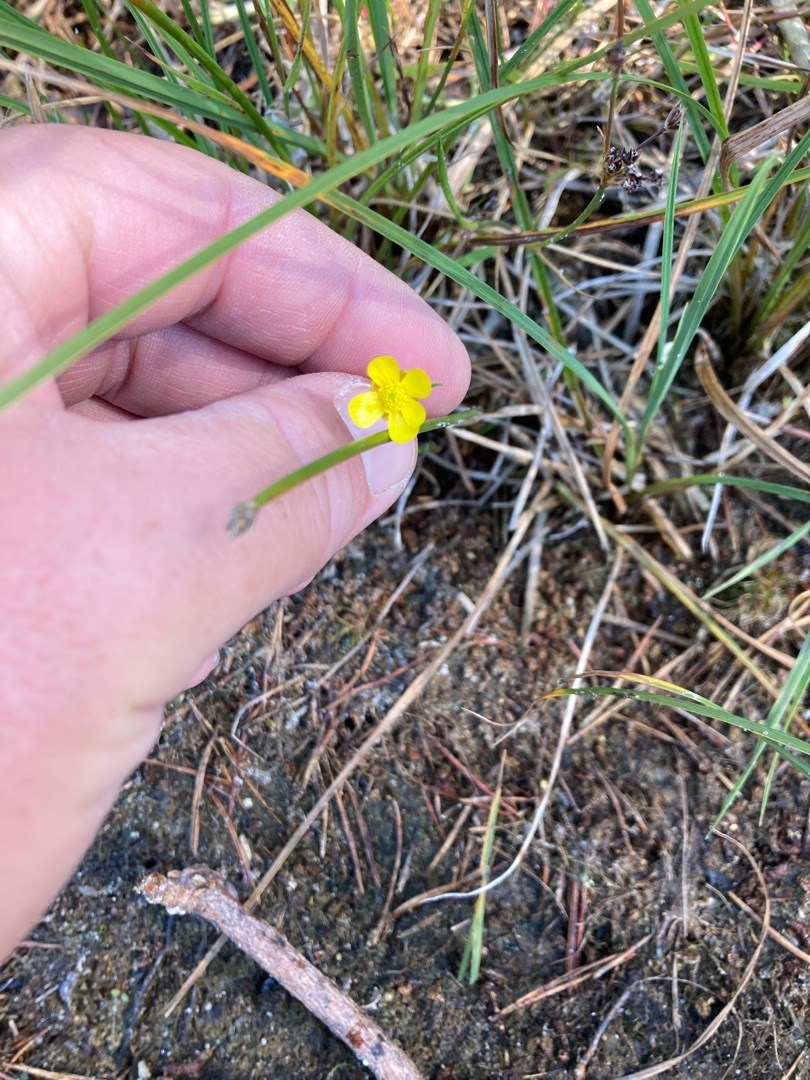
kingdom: Plantae
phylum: Tracheophyta
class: Magnoliopsida
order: Ranunculales
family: Ranunculaceae
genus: Ranunculus
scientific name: Ranunculus flammula
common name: Kær-ranunkel
